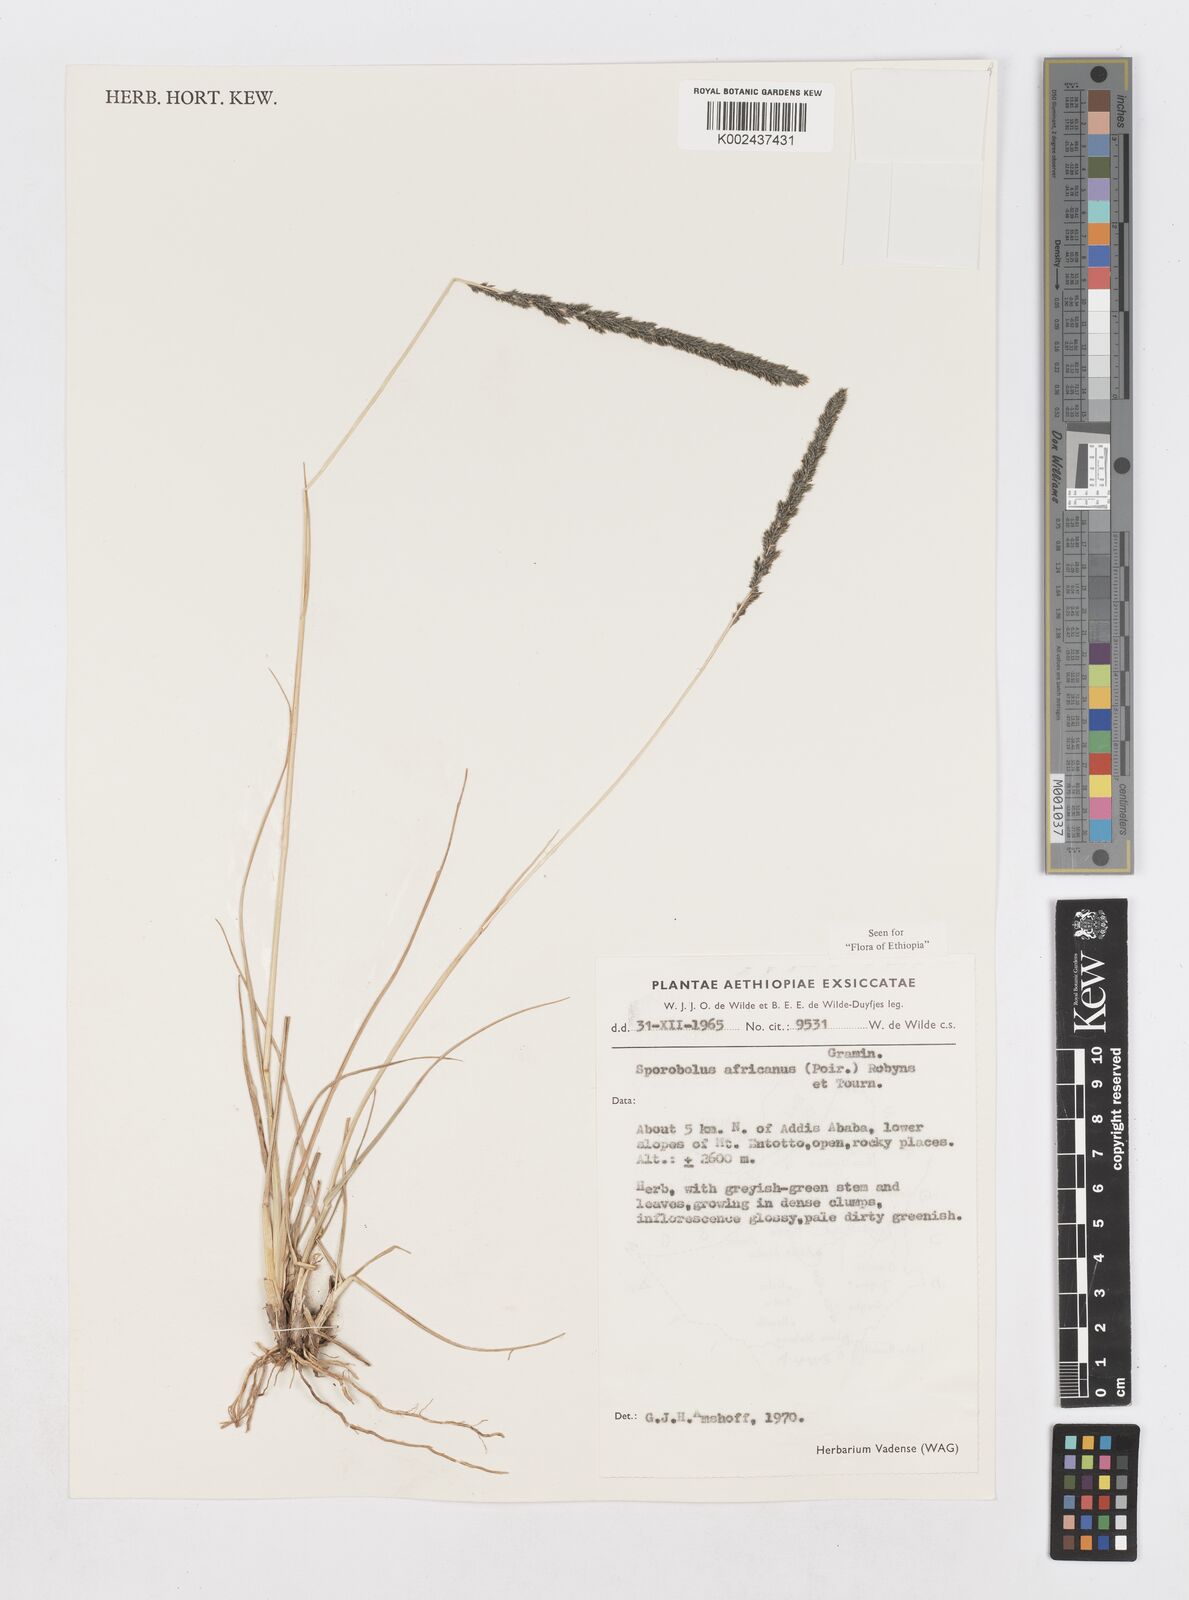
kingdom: Plantae
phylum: Tracheophyta
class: Liliopsida
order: Poales
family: Poaceae
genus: Sporobolus
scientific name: Sporobolus africanus
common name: African dropseed
